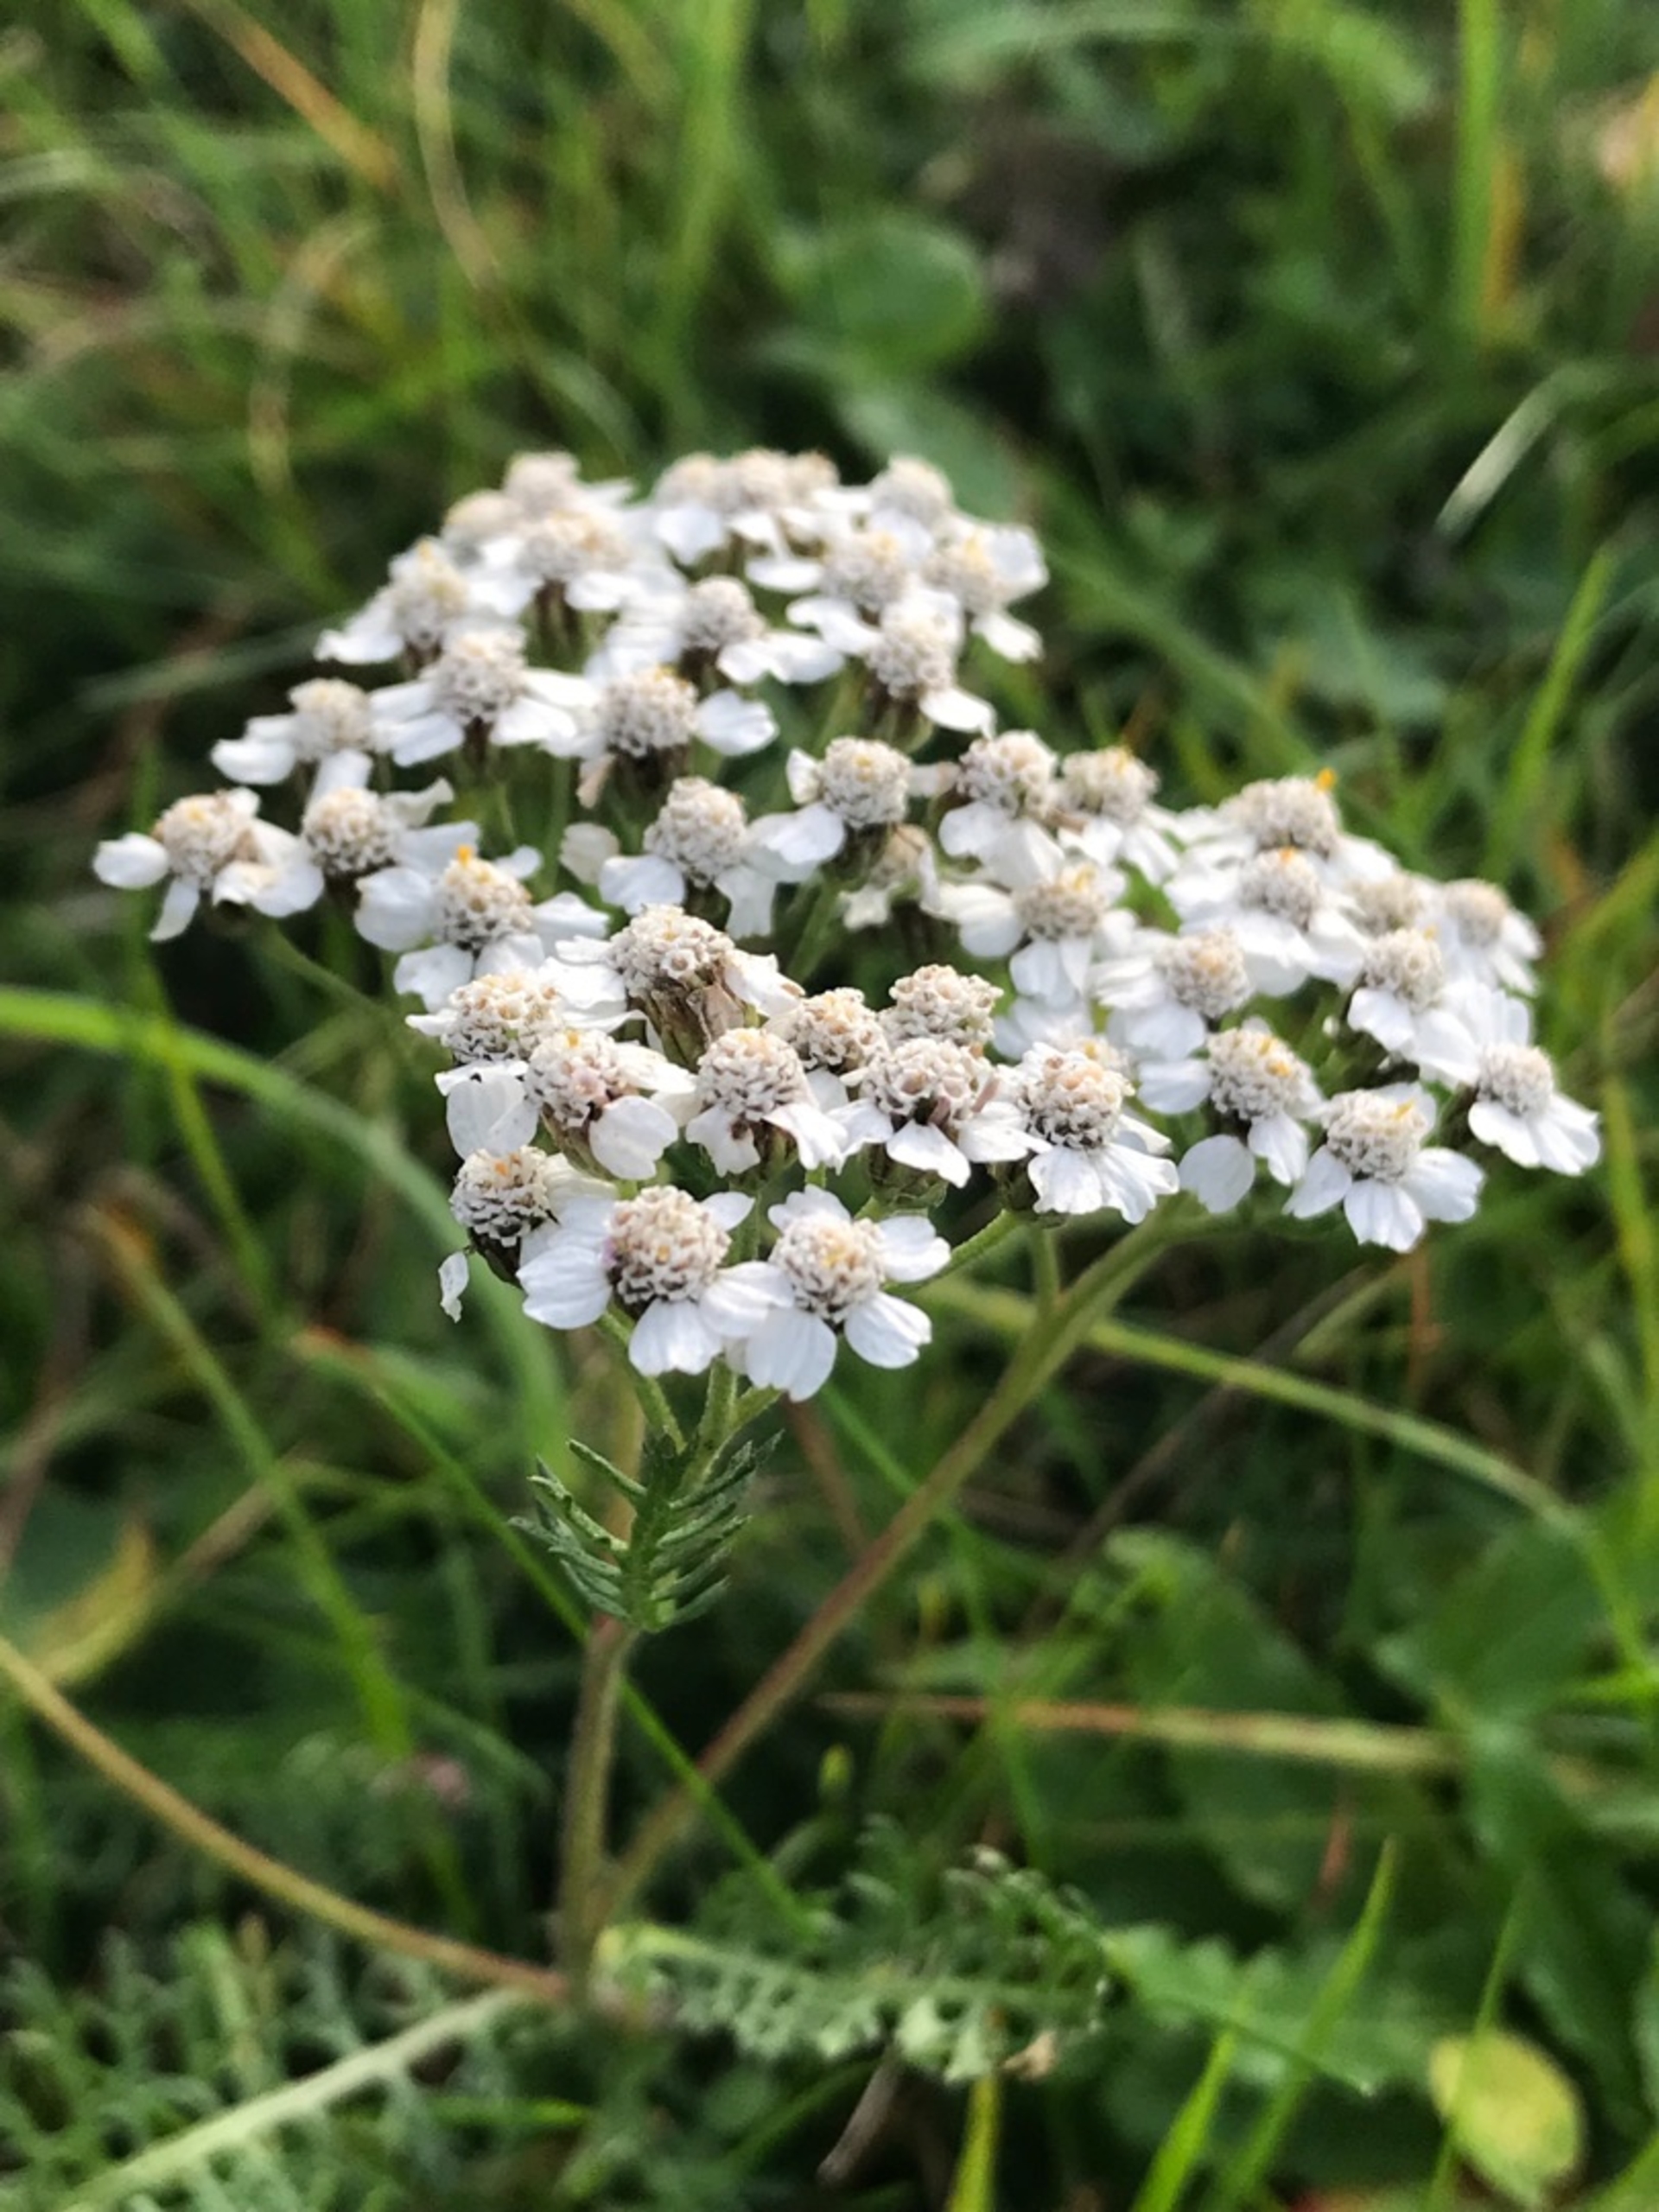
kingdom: Plantae
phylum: Tracheophyta
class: Magnoliopsida
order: Asterales
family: Asteraceae
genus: Achillea
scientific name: Achillea millefolium
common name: Almindelig røllike
